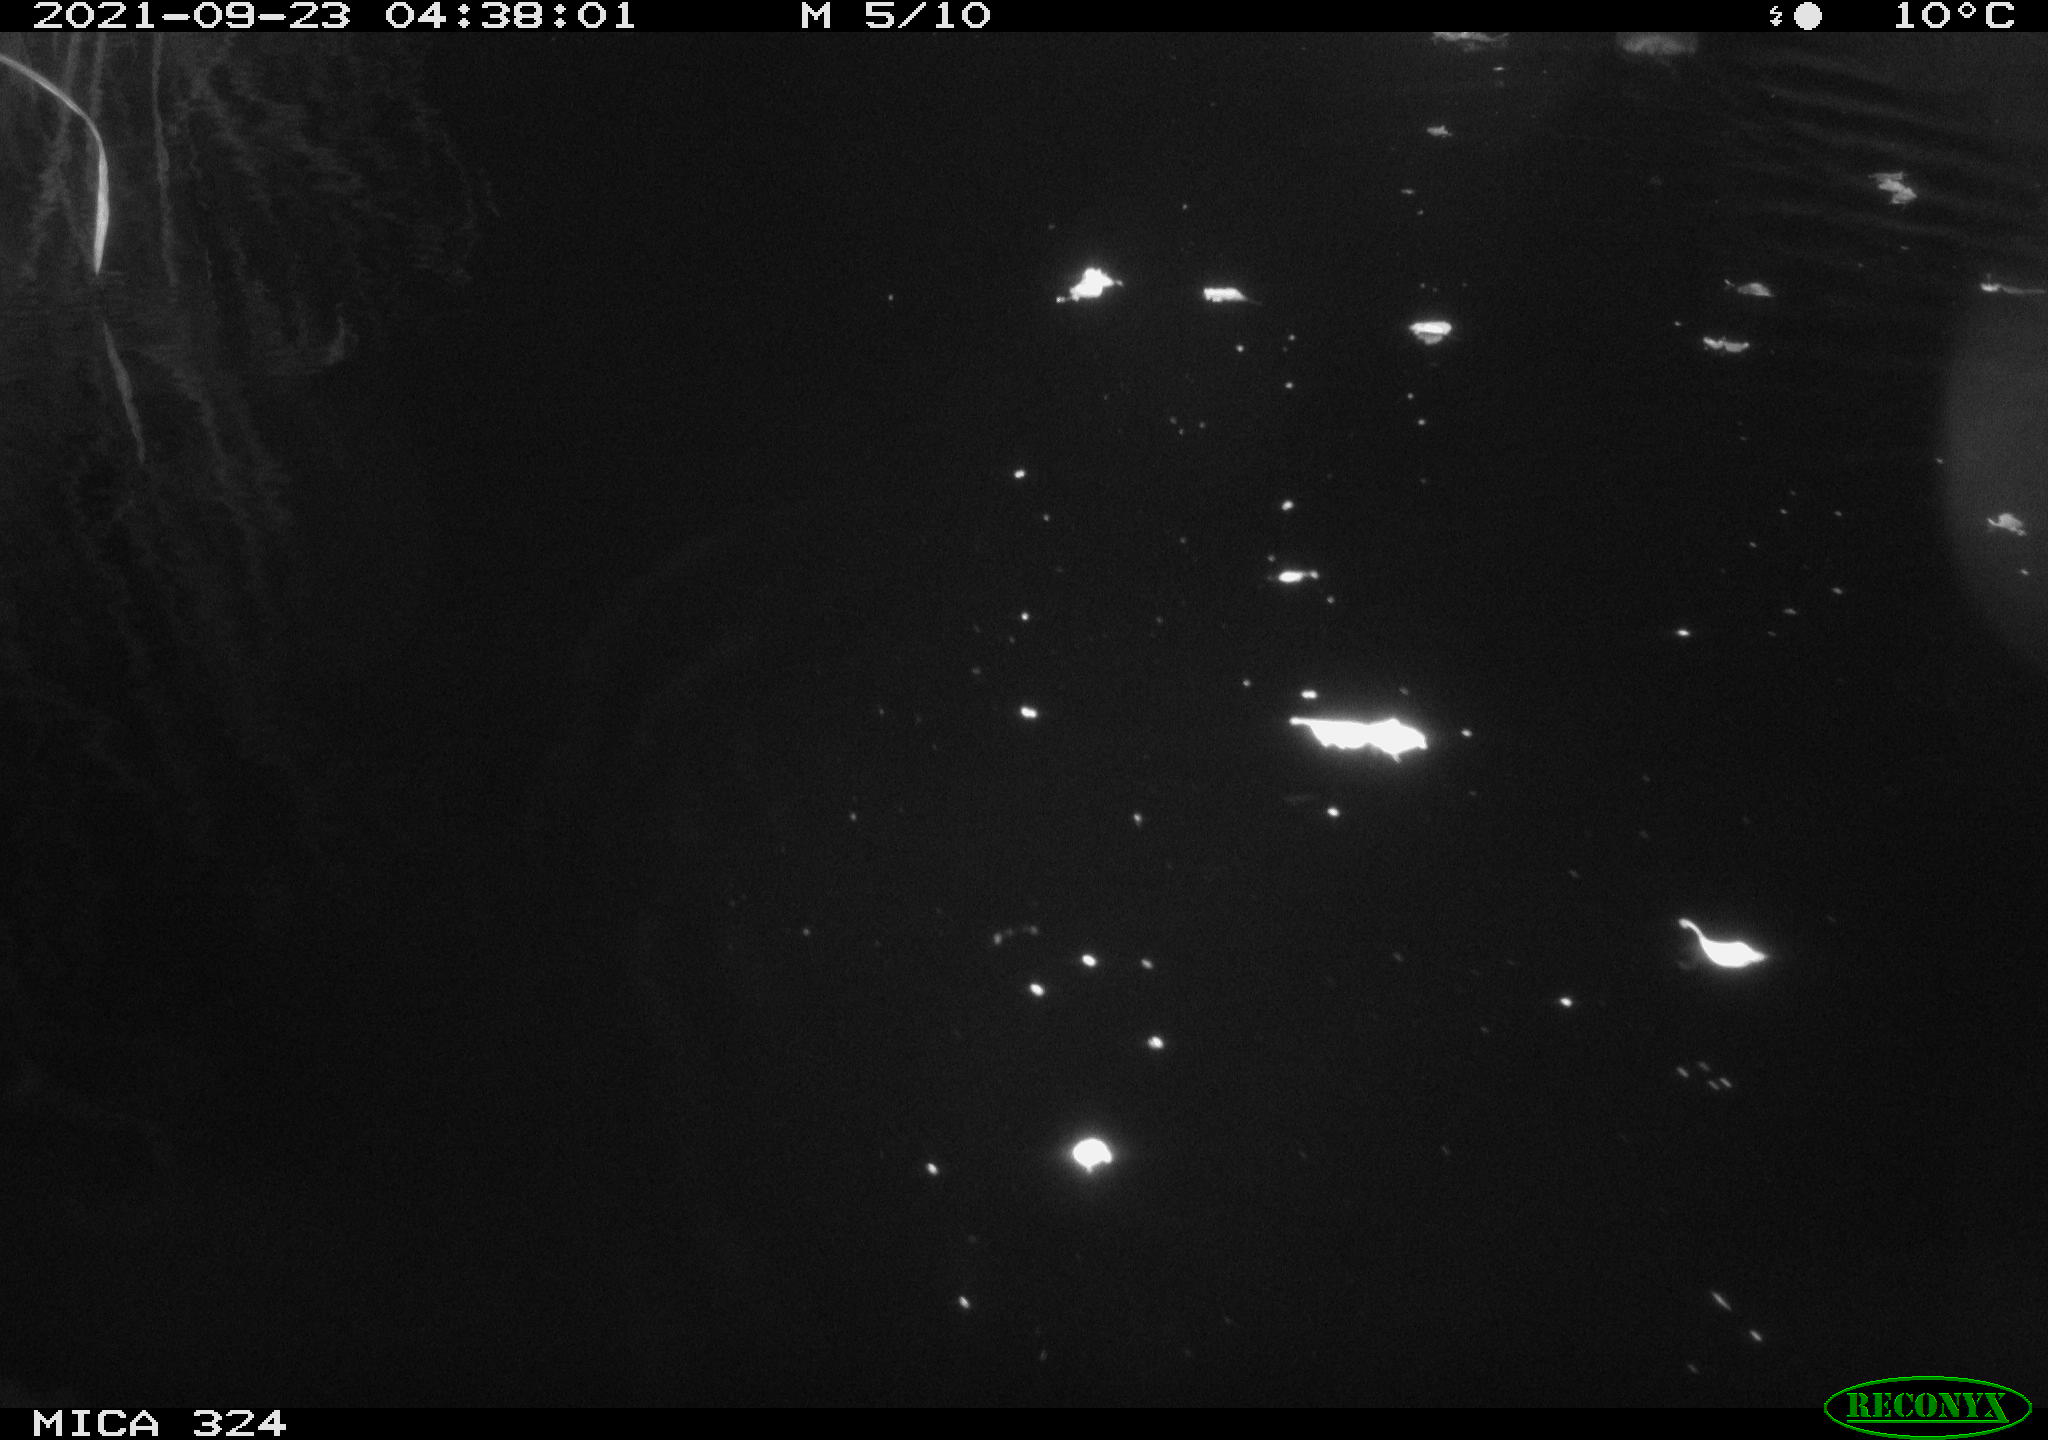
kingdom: Animalia
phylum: Chordata
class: Mammalia
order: Rodentia
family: Cricetidae
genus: Ondatra
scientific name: Ondatra zibethicus
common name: Muskrat
